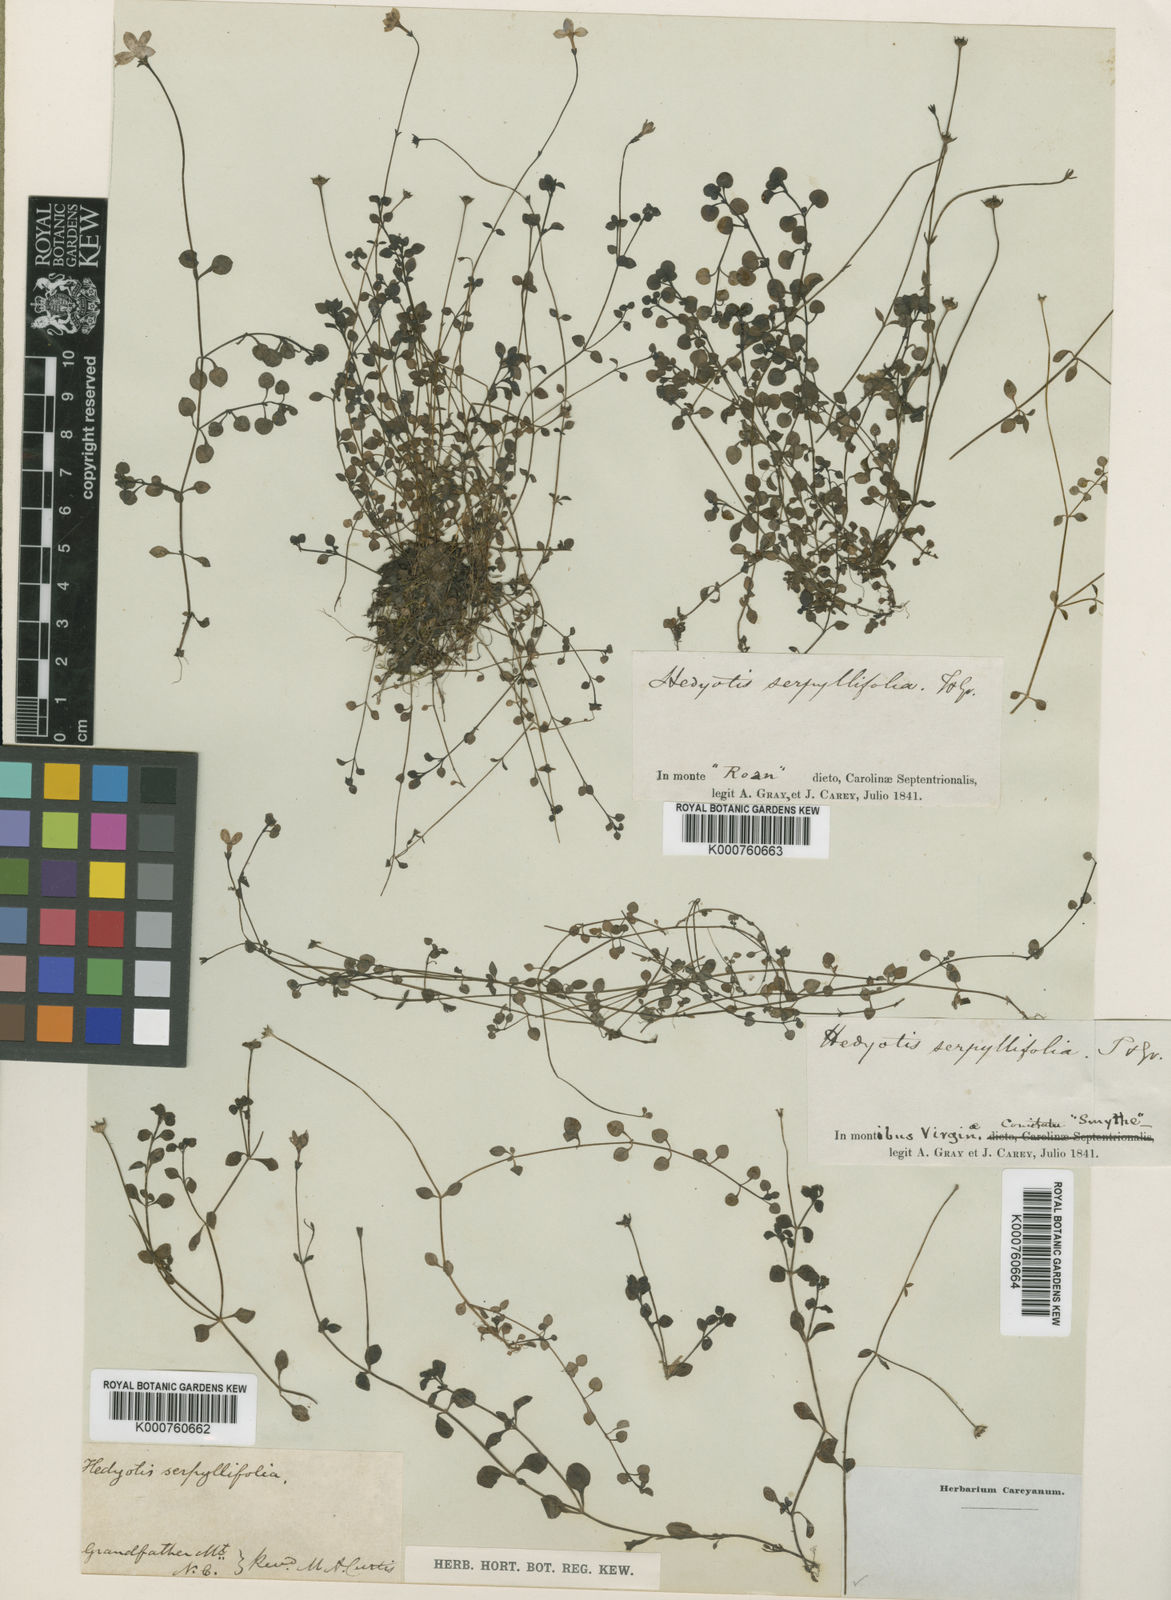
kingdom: Plantae
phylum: Tracheophyta
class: Magnoliopsida
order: Gentianales
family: Rubiaceae
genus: Houstonia
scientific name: Houstonia serpyllifolia
